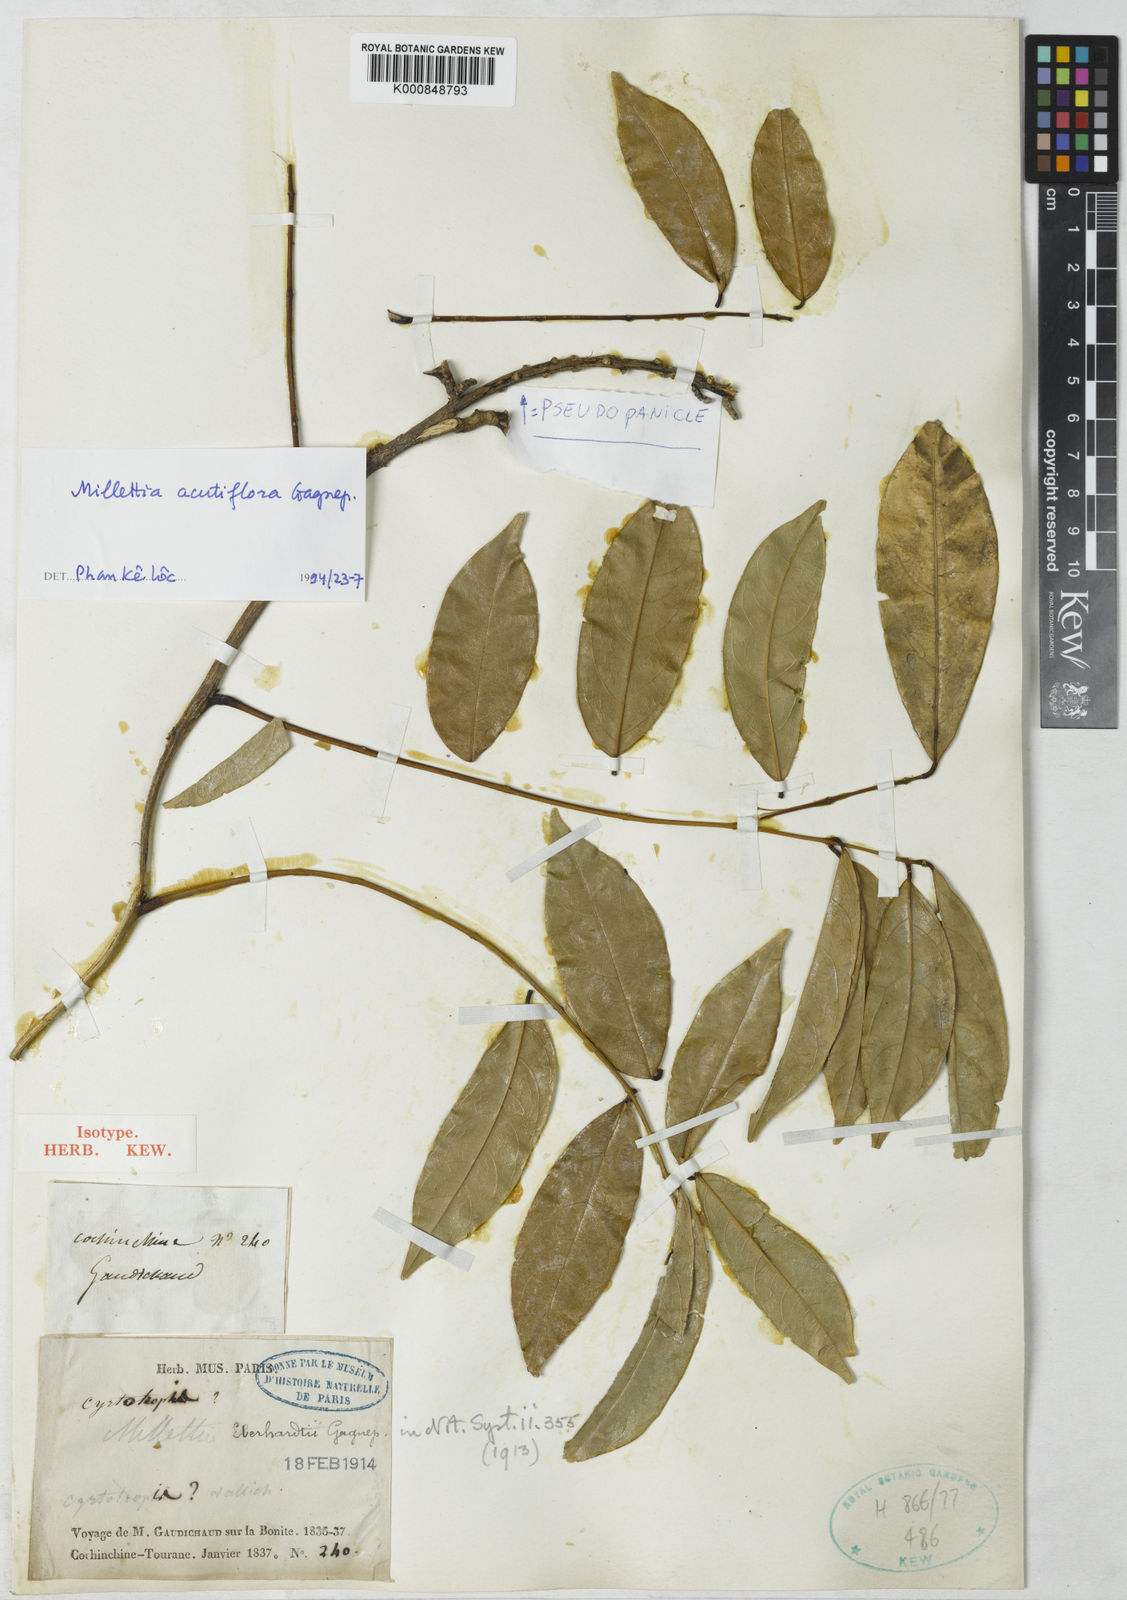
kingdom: Plantae
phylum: Tracheophyta
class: Magnoliopsida
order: Fabales
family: Fabaceae
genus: Millettia
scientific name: Millettia acutiflora
